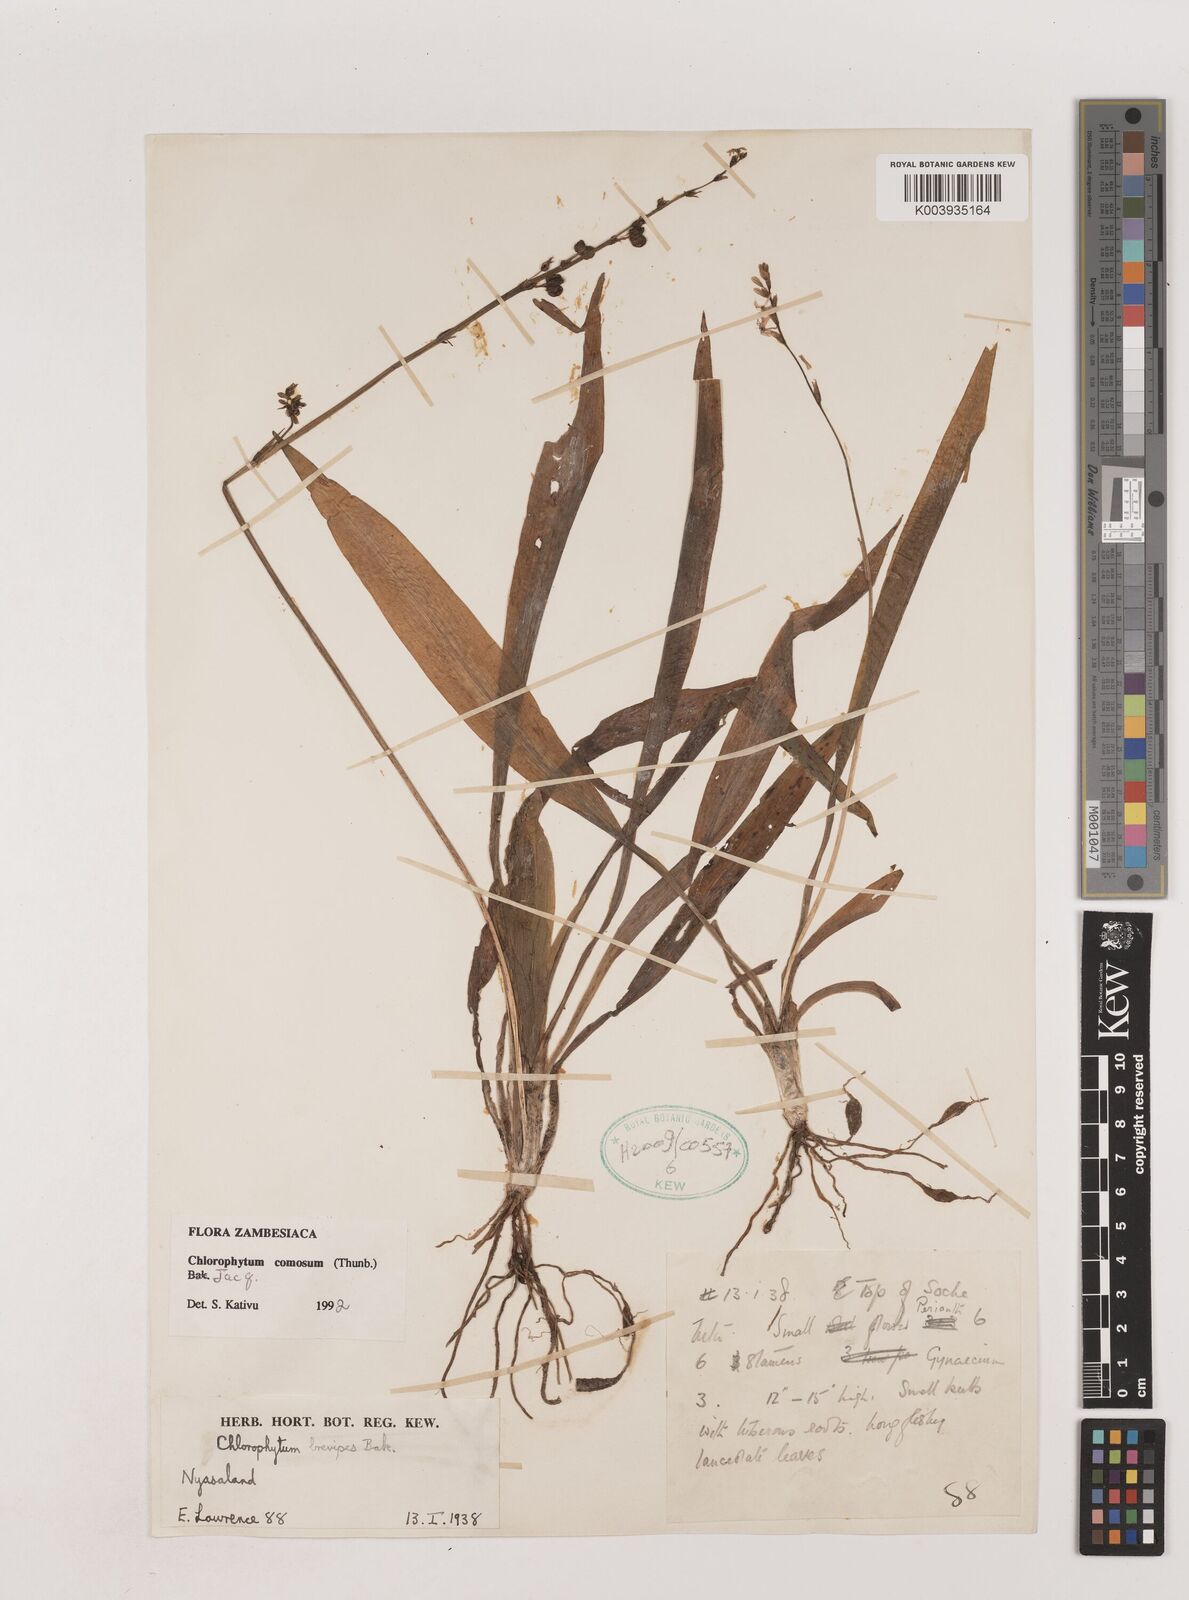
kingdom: Plantae
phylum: Tracheophyta
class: Liliopsida
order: Asparagales
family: Asparagaceae
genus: Chlorophytum
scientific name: Chlorophytum comosum
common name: Spider plant
